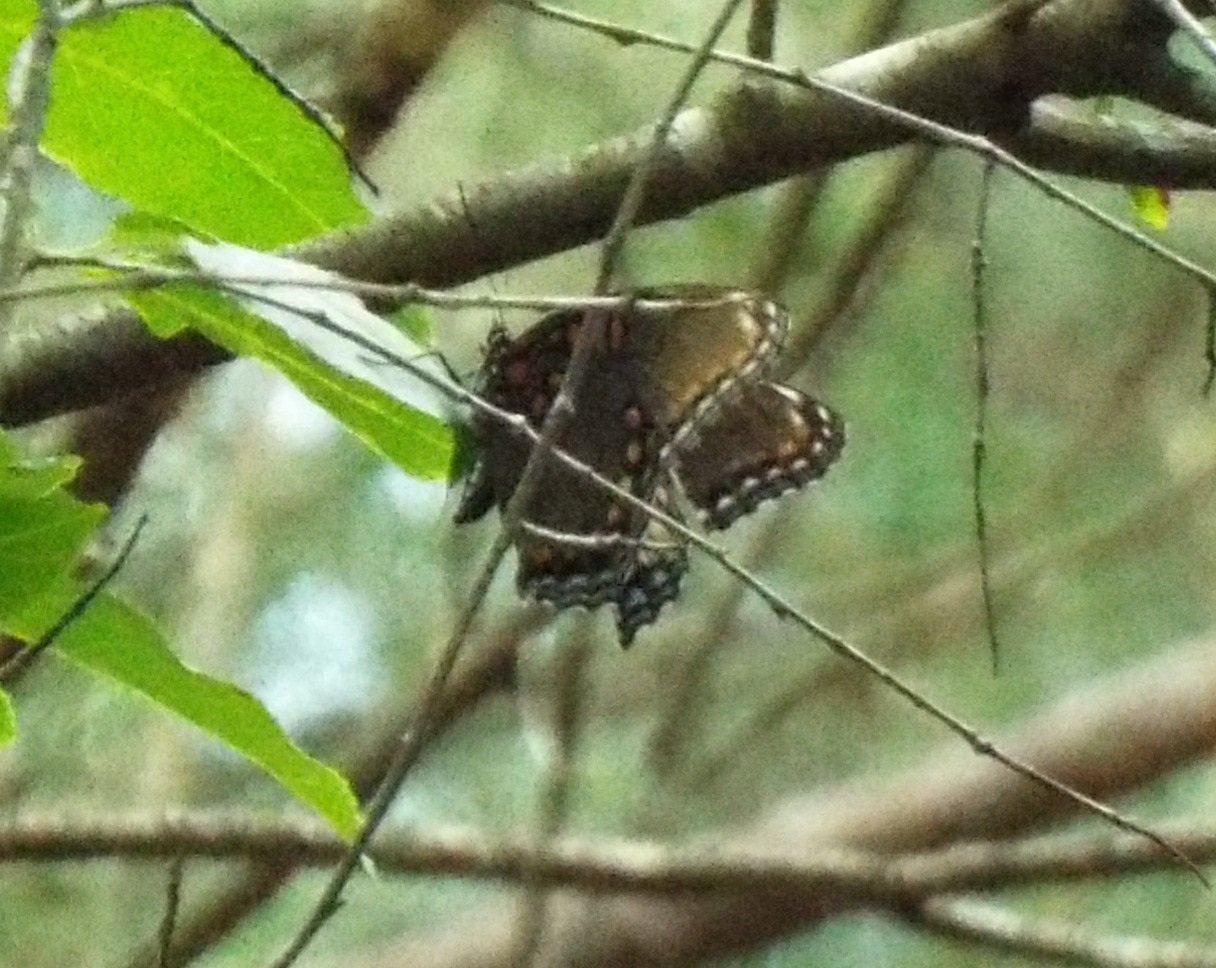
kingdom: Animalia
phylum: Arthropoda
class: Insecta
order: Lepidoptera
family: Nymphalidae
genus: Limenitis
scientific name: Limenitis astyanax
